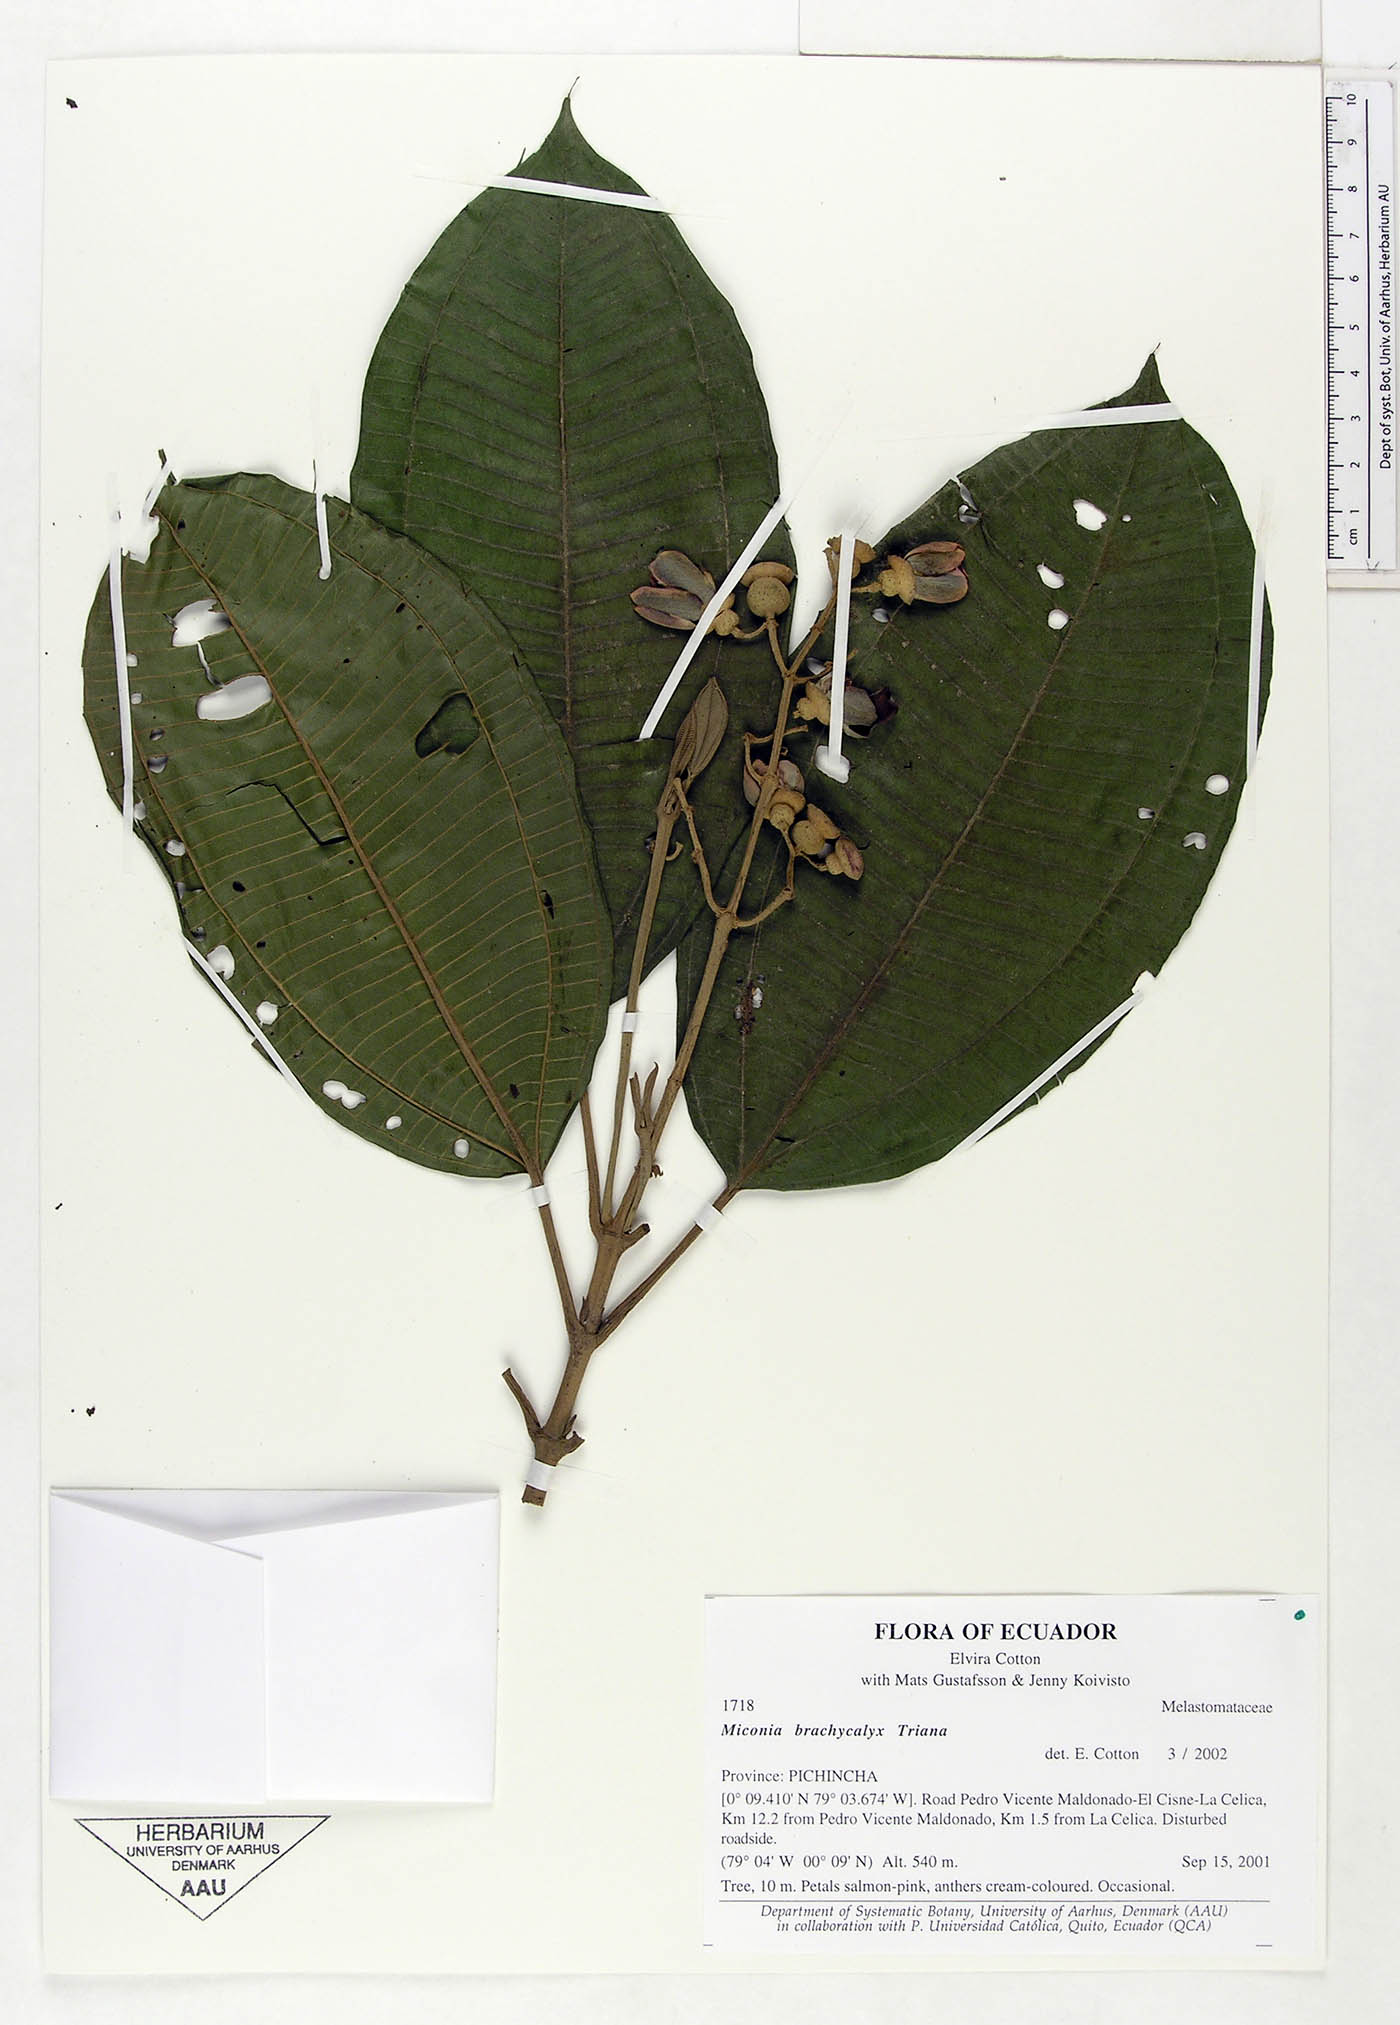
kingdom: Plantae
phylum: Tracheophyta
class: Magnoliopsida
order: Myrtales
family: Melastomataceae
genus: Miconia
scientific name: Miconia brachycalyx
